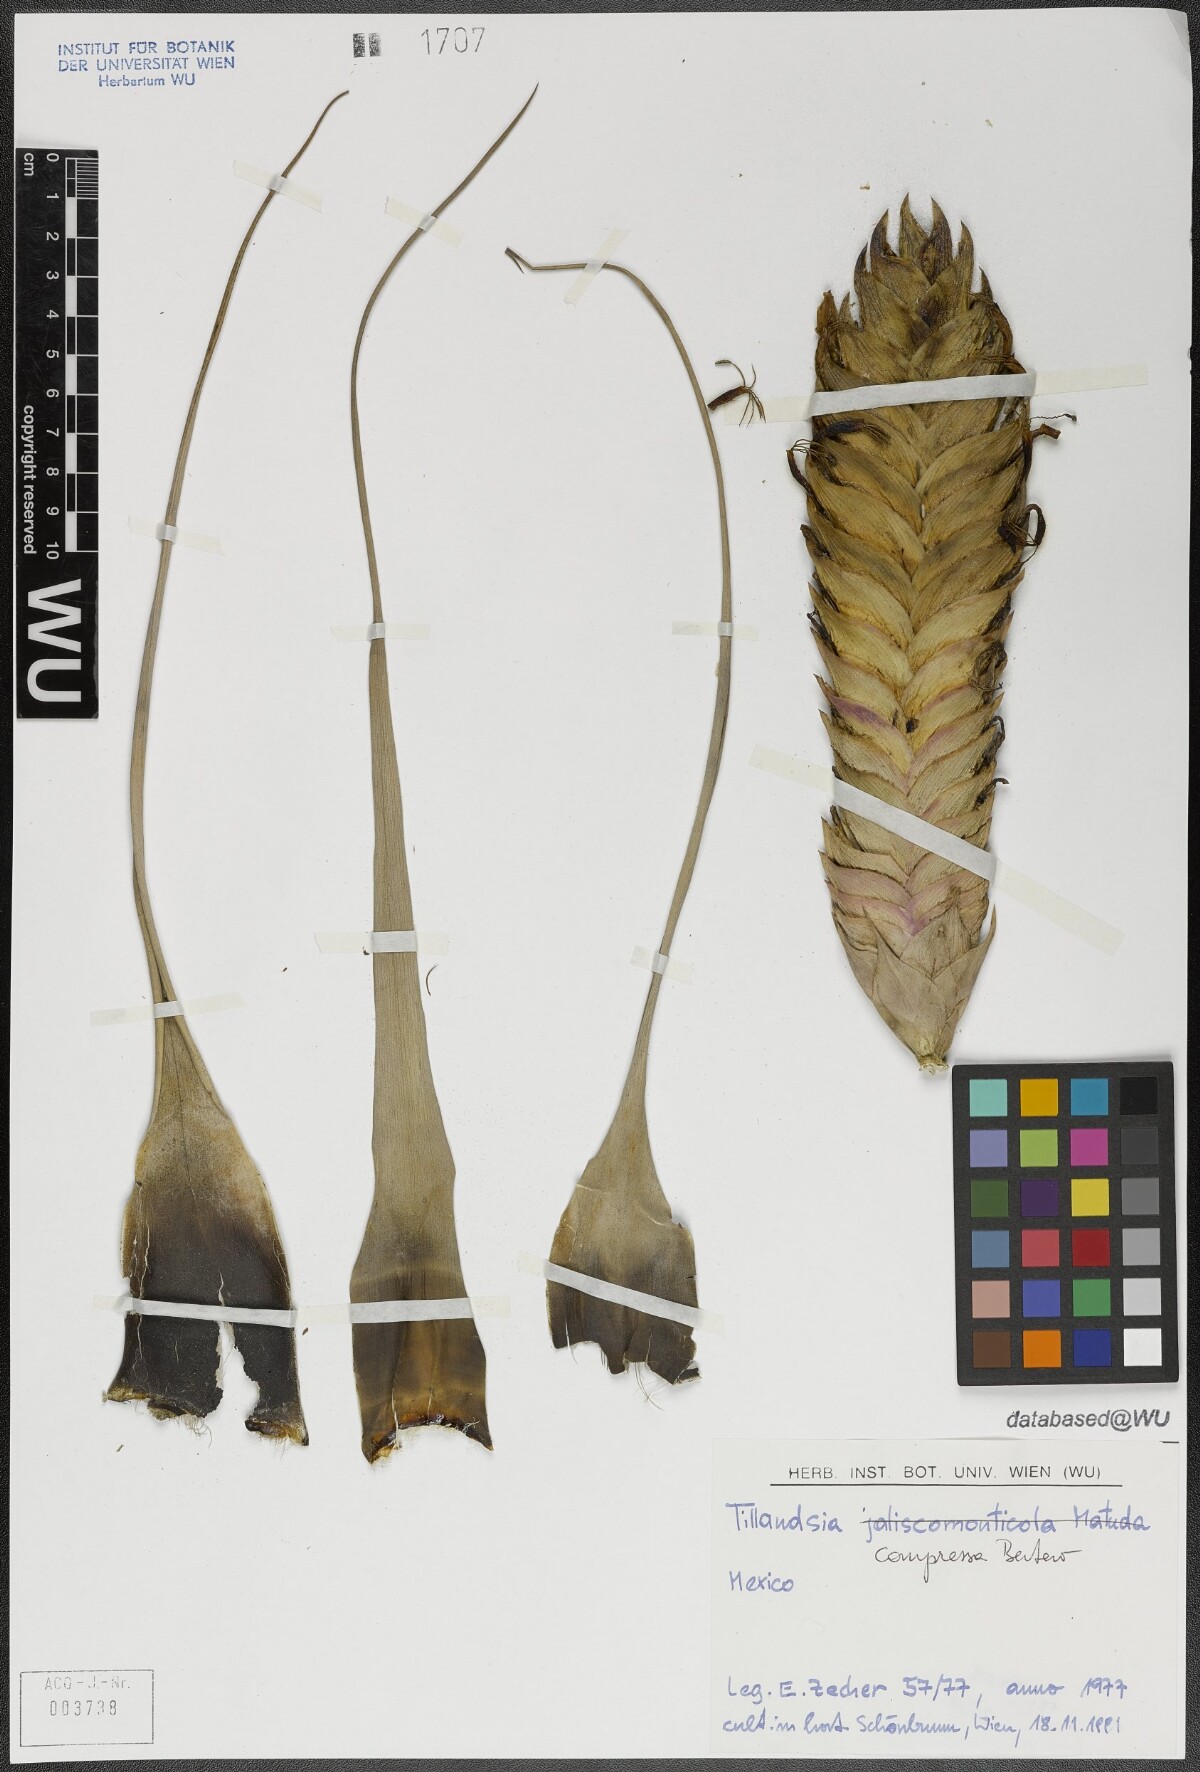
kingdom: Plantae
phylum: Tracheophyta
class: Liliopsida
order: Poales
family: Bromeliaceae
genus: Tillandsia
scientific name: Tillandsia compressa
